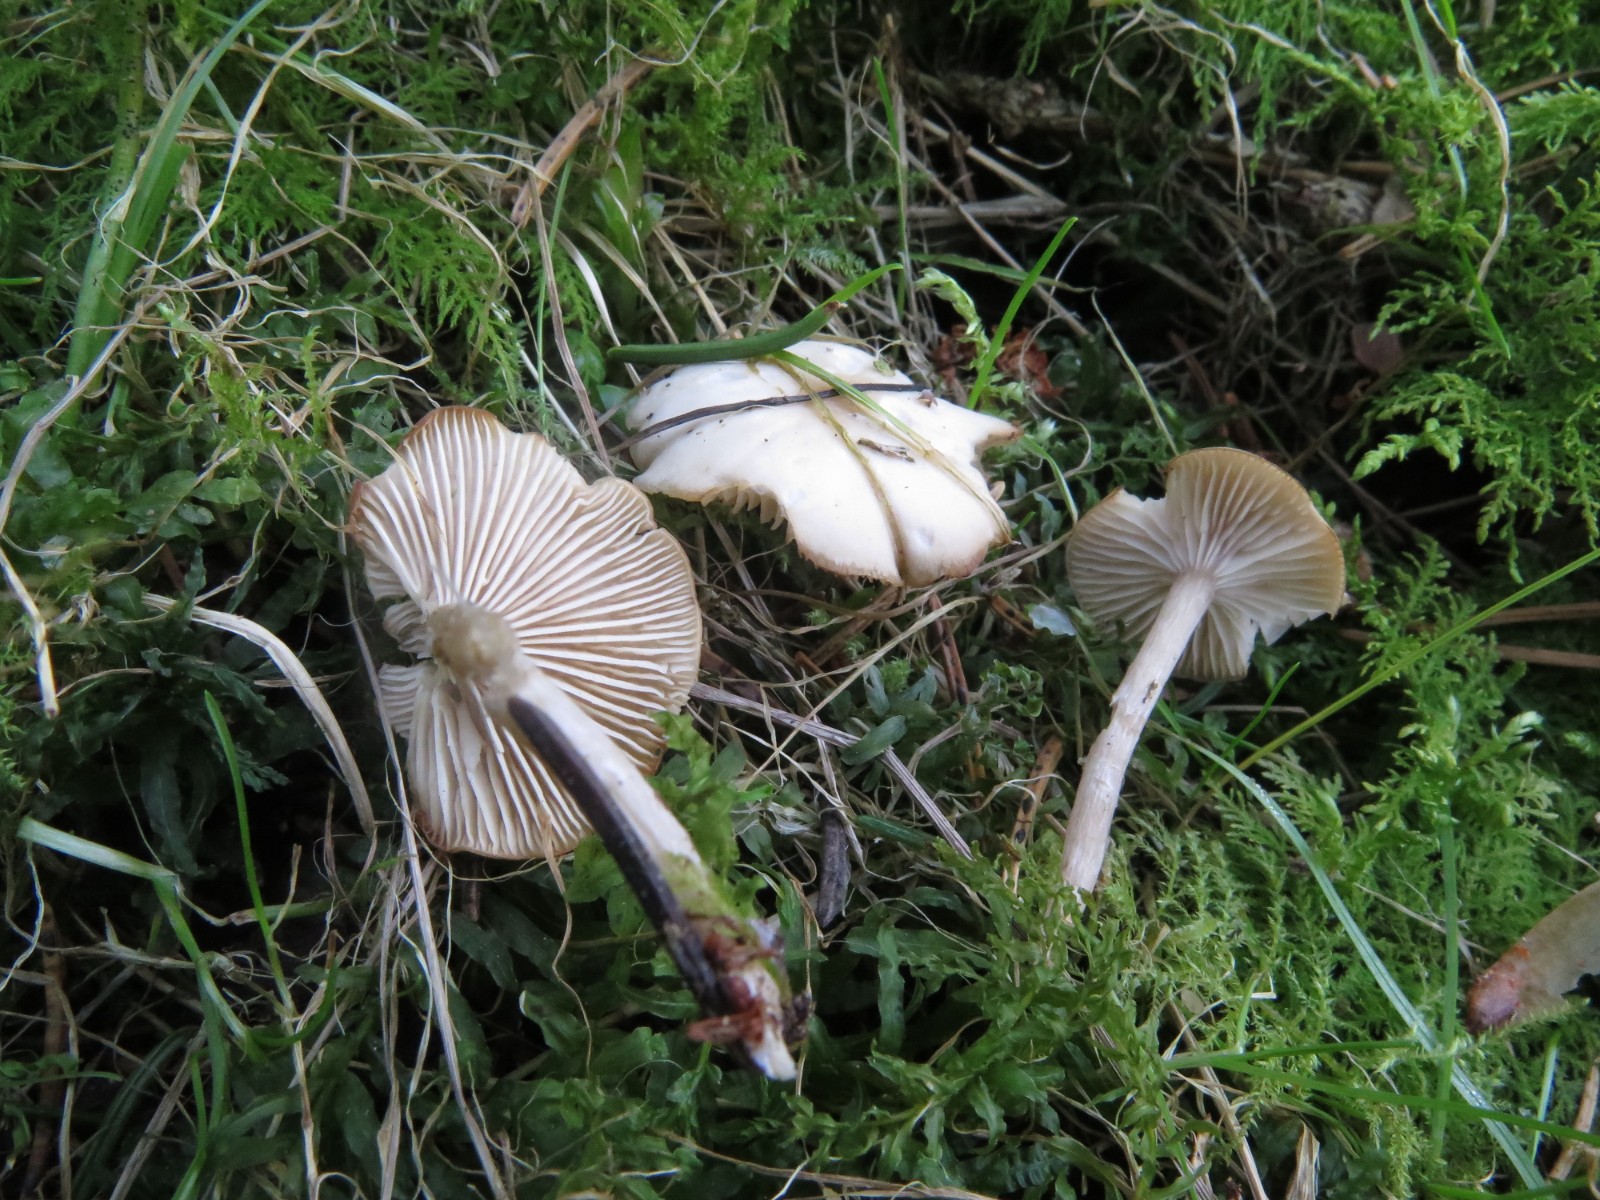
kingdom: Fungi
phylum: Basidiomycota
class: Agaricomycetes
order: Agaricales
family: Tricholomataceae
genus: Clitocybe
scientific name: Clitocybe fragrans
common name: vellugtende tragthat
